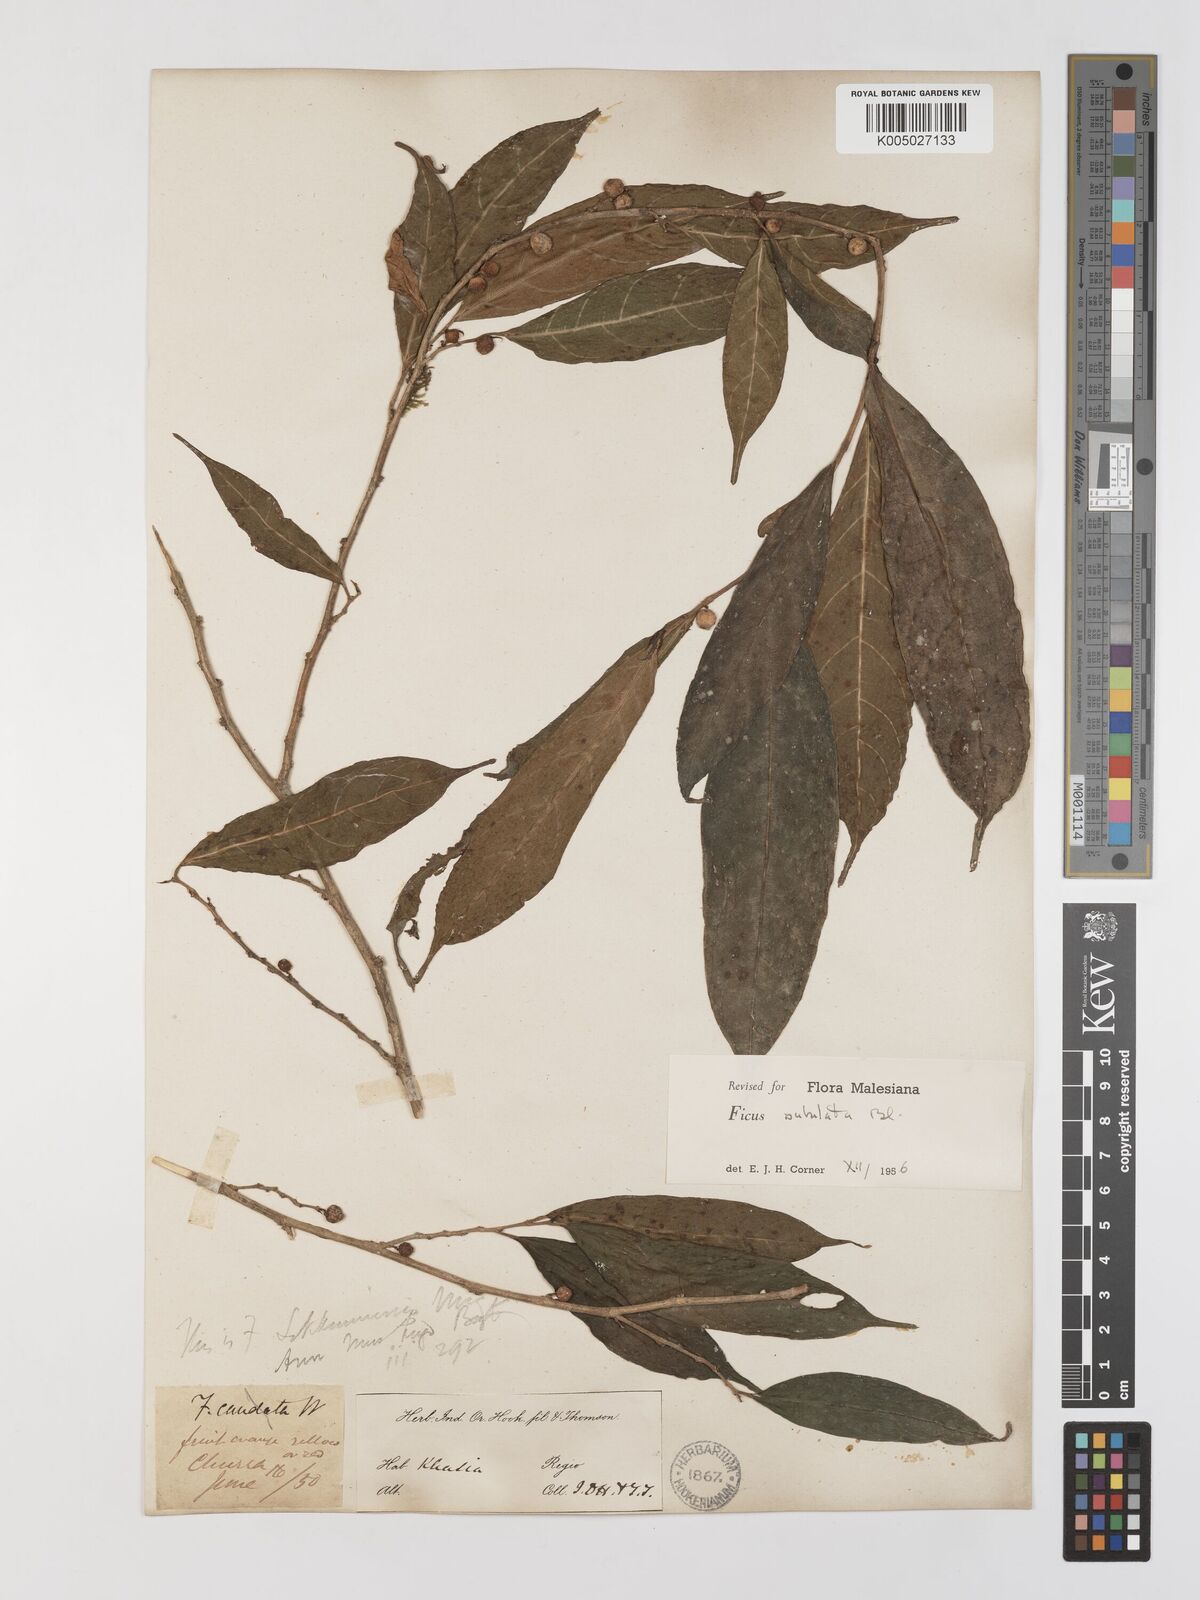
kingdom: Plantae
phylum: Tracheophyta
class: Magnoliopsida
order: Rosales
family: Moraceae
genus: Ficus
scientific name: Ficus subulata
